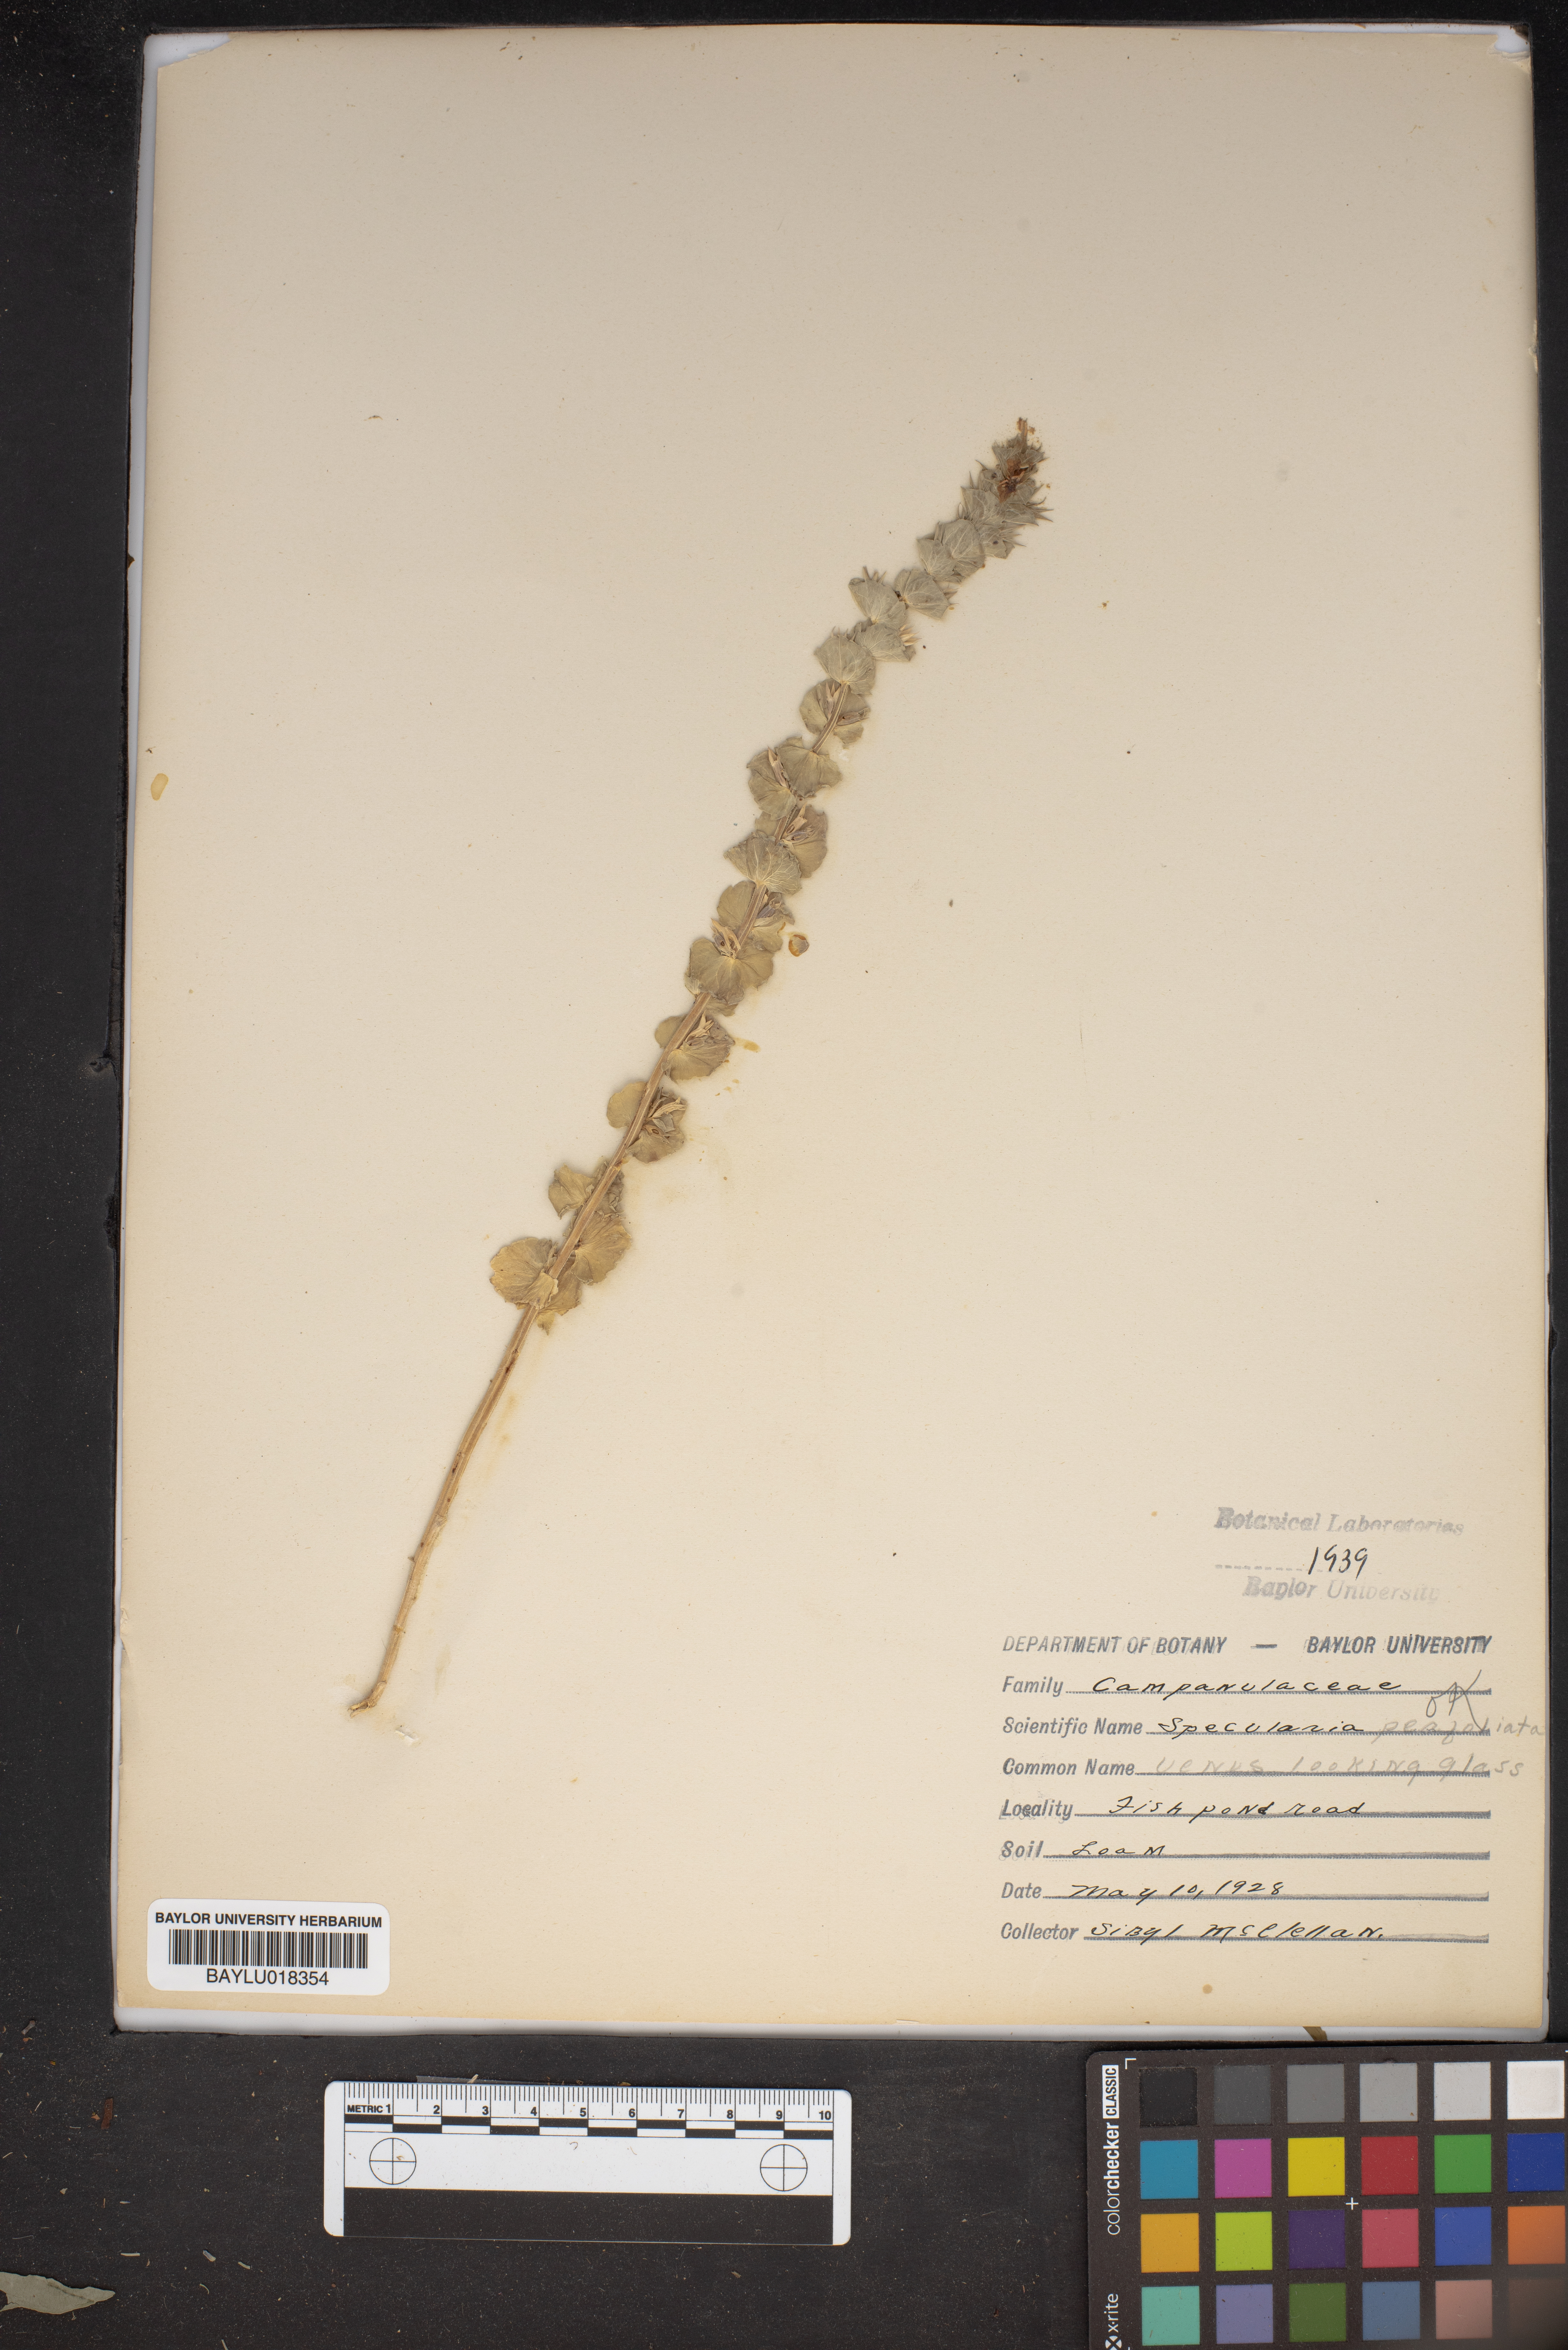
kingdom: Plantae
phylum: Tracheophyta
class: Magnoliopsida
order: Asterales
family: Campanulaceae
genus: Triodanis
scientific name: Triodanis perfoliata
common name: Clasping venus' looking-glass
